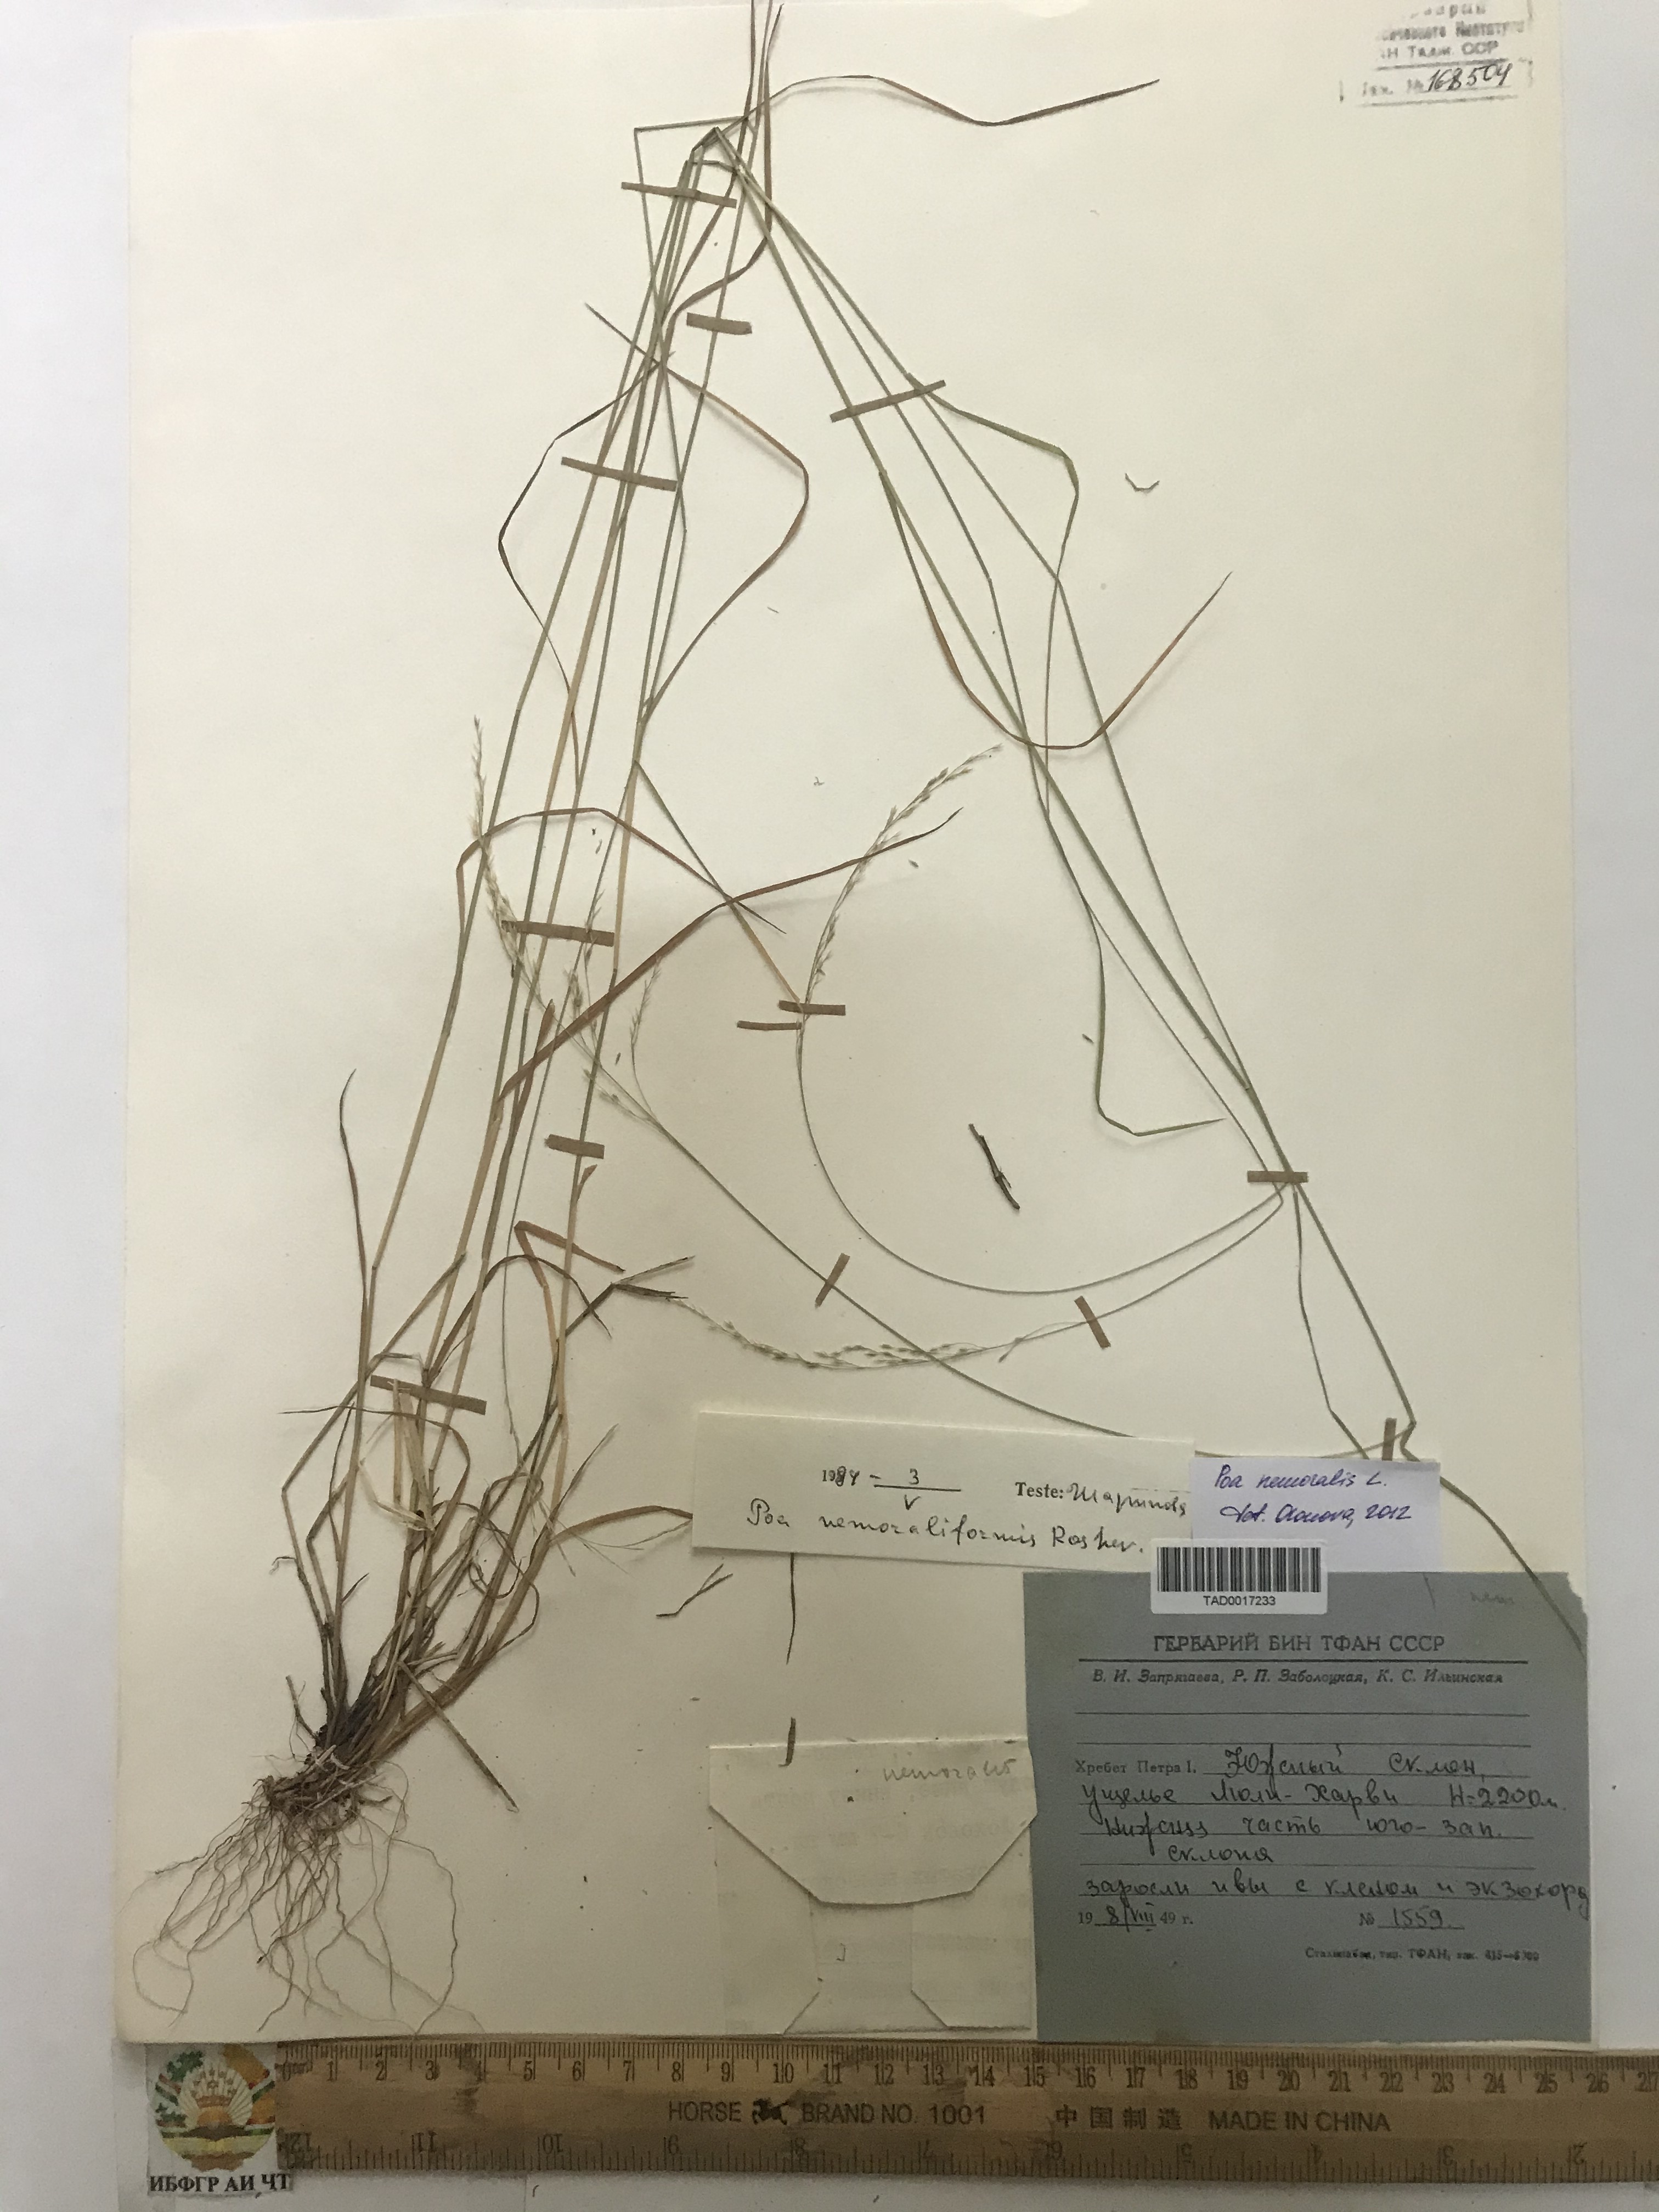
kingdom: Plantae
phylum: Tracheophyta
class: Liliopsida
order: Poales
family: Poaceae
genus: Poa
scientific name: Poa nemoralis
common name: Wood bluegrass
